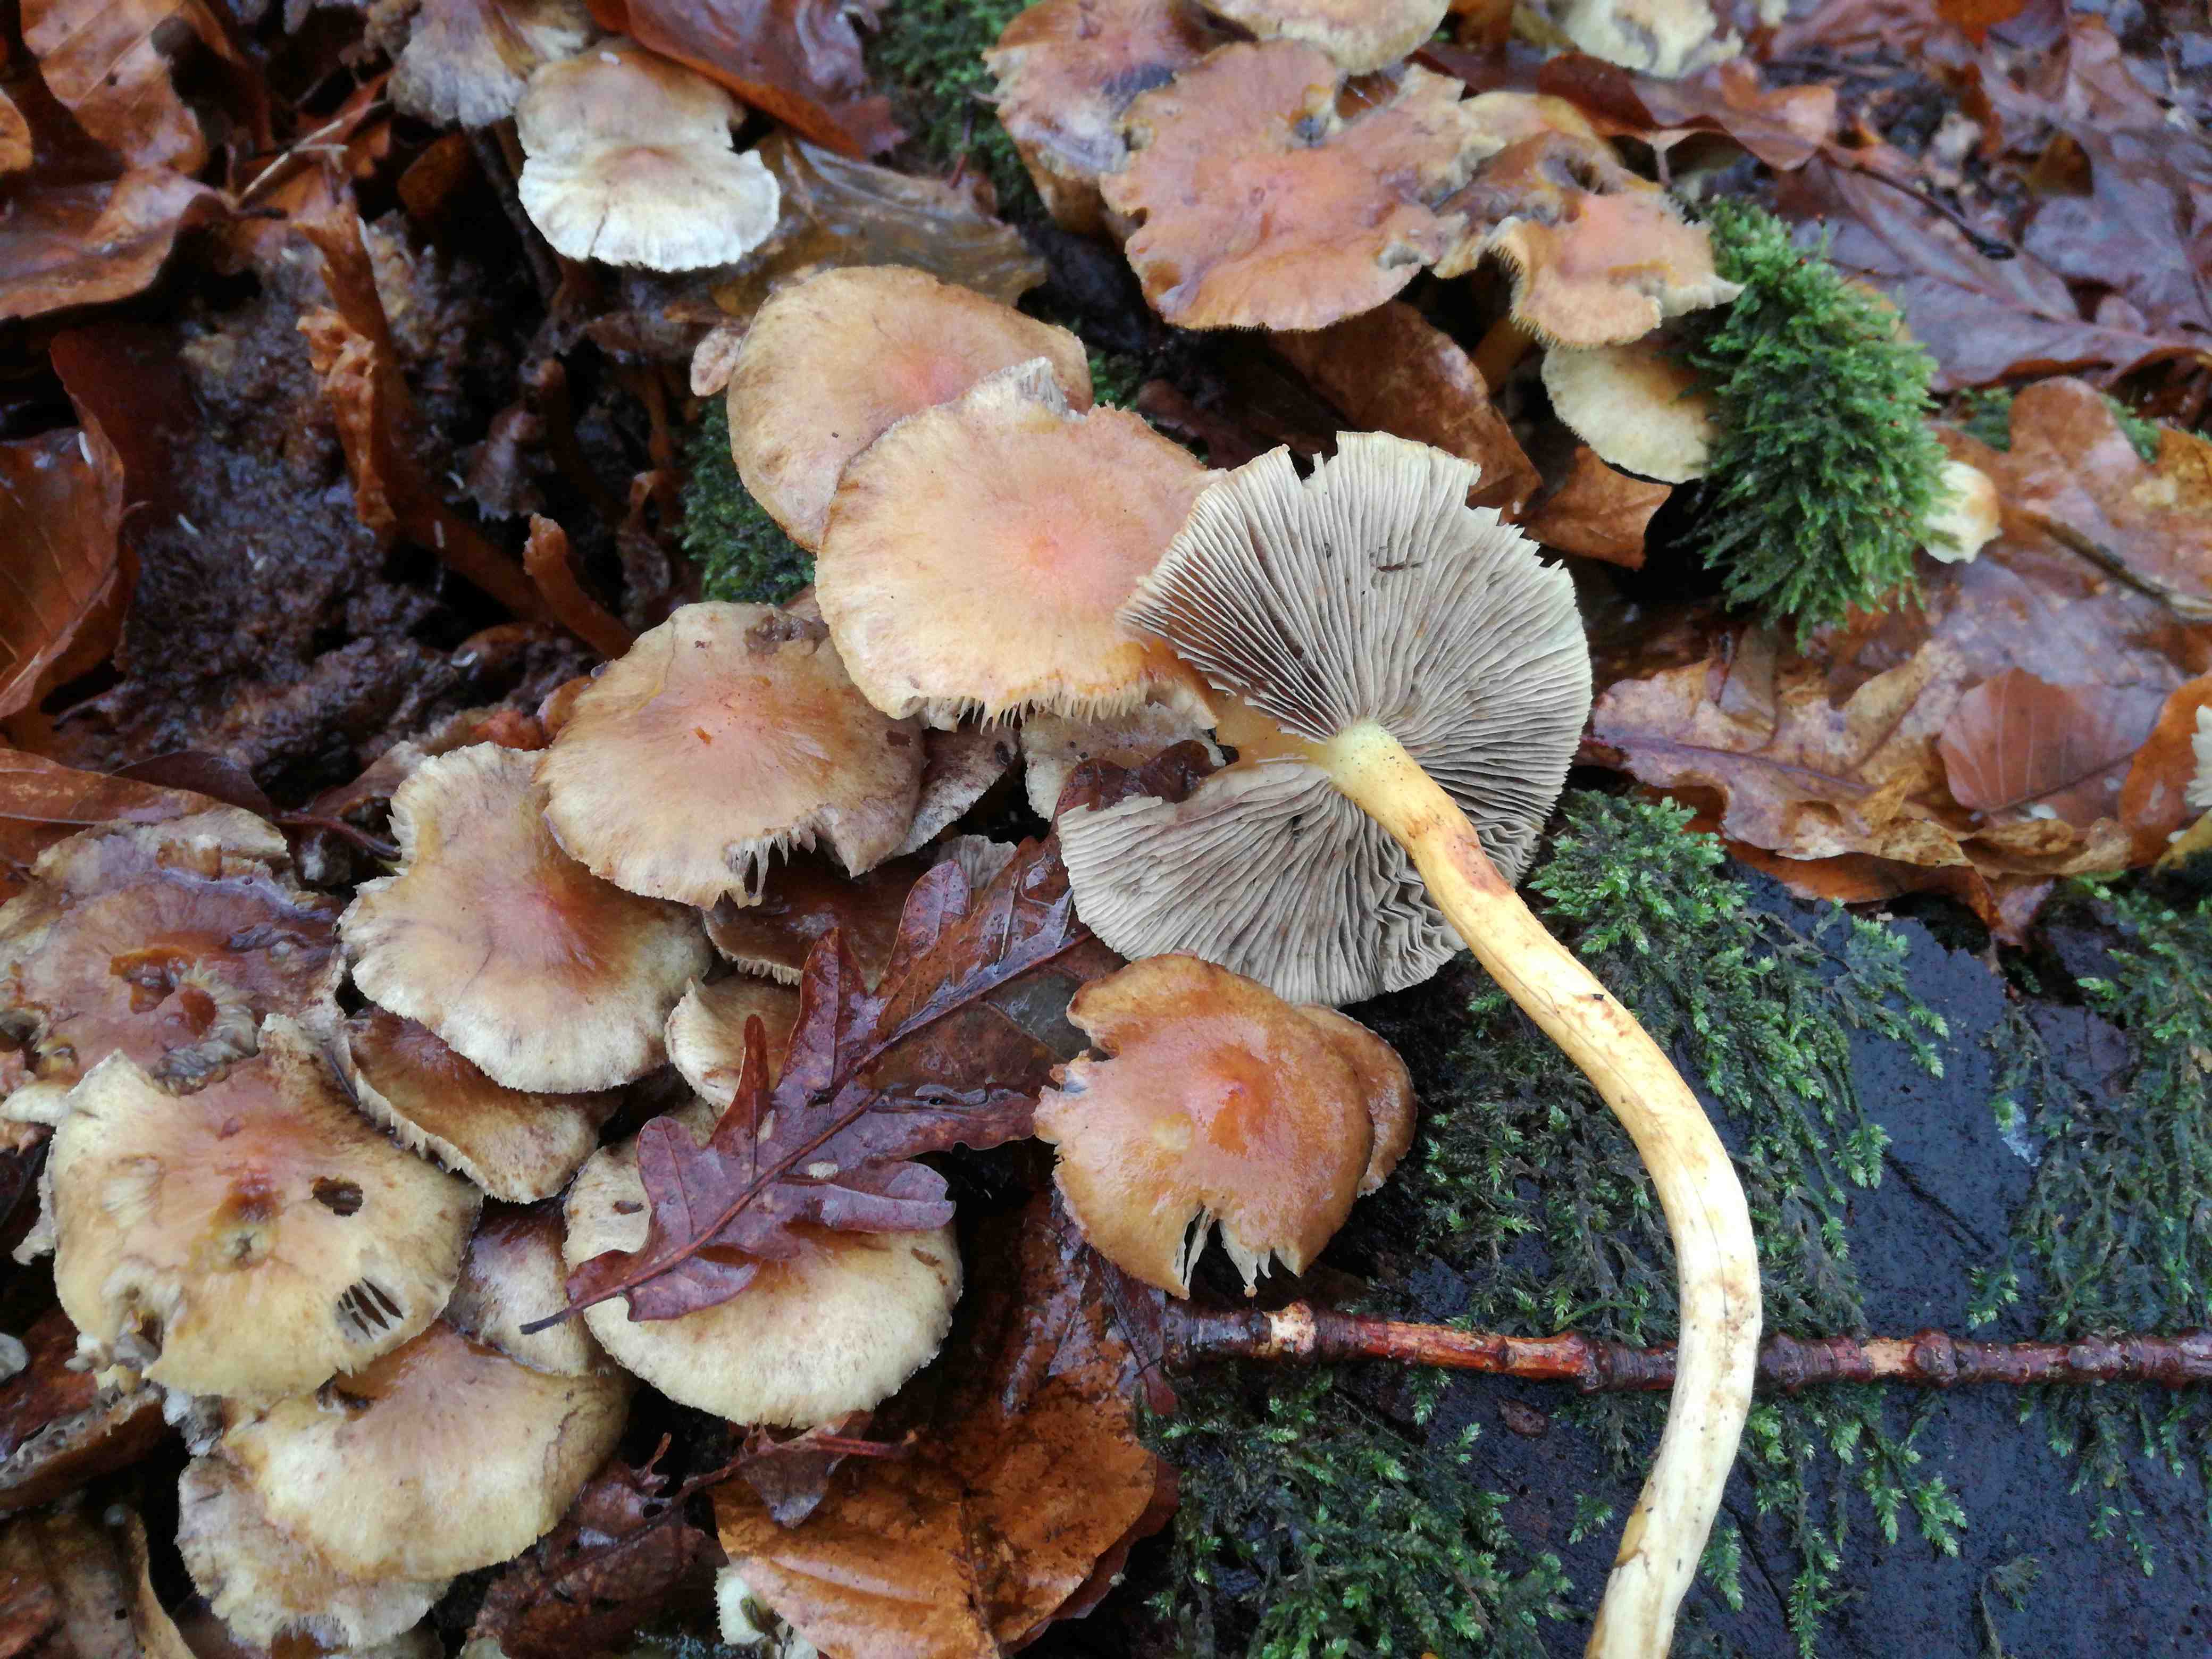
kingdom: Fungi
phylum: Basidiomycota
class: Agaricomycetes
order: Agaricales
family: Strophariaceae
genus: Hypholoma
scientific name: Hypholoma fasciculare
